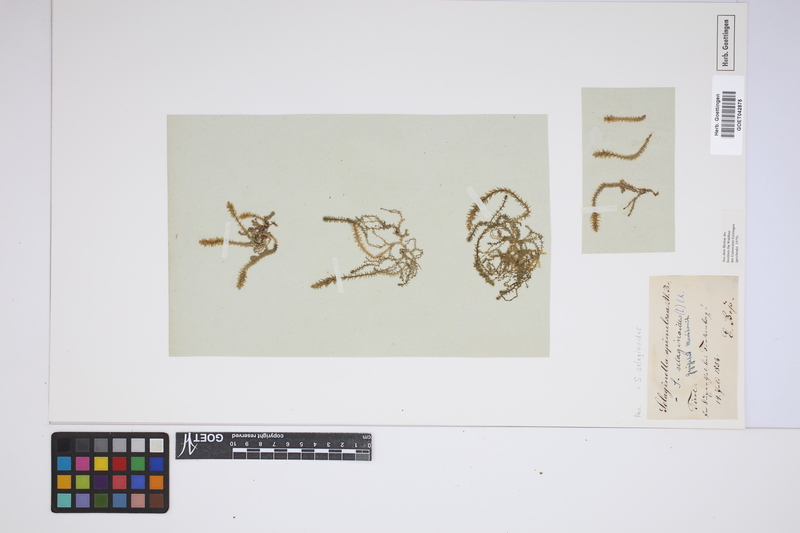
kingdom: Plantae
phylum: Tracheophyta
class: Lycopodiopsida
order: Selaginellales
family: Selaginellaceae
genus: Selaginella
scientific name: Selaginella selaginoides
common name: Prickly mountain-moss
